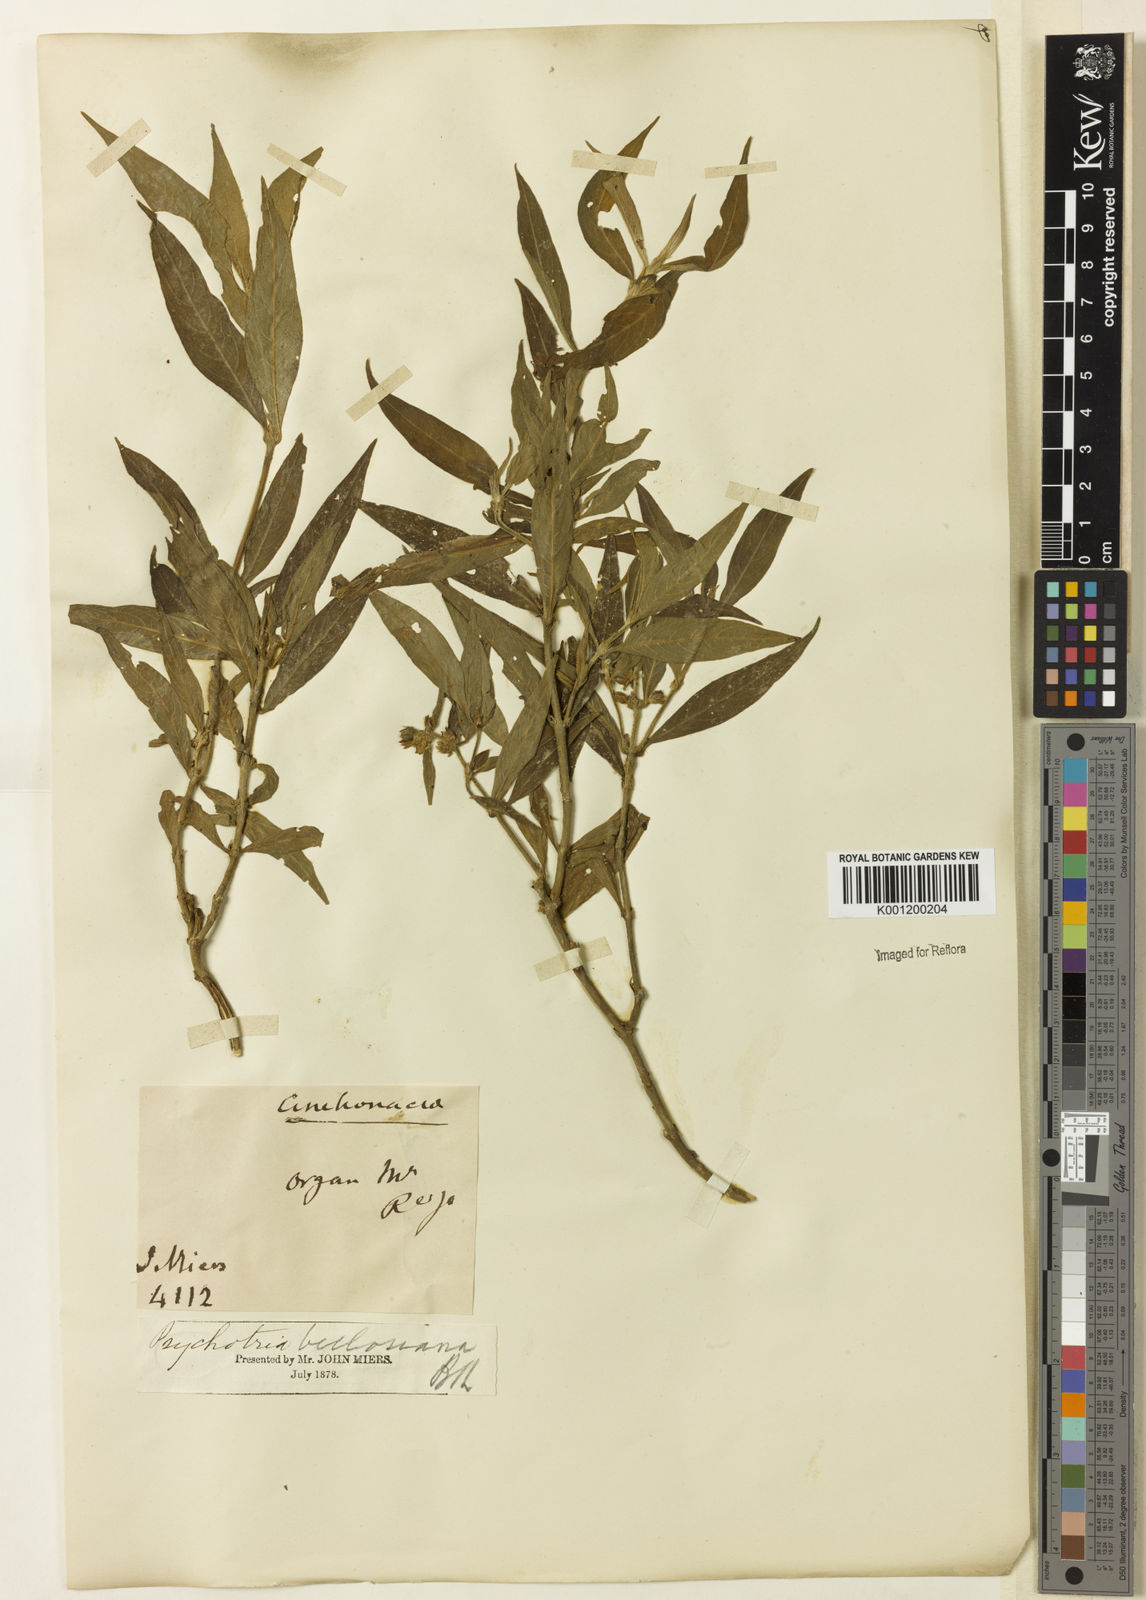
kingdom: Plantae
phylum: Tracheophyta
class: Magnoliopsida
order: Gentianales
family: Rubiaceae
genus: Rudgea
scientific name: Rudgea sessilis
